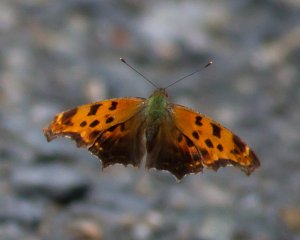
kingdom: Animalia
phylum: Arthropoda
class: Insecta
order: Lepidoptera
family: Nymphalidae
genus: Polygonia
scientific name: Polygonia comma
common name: Eastern Comma
